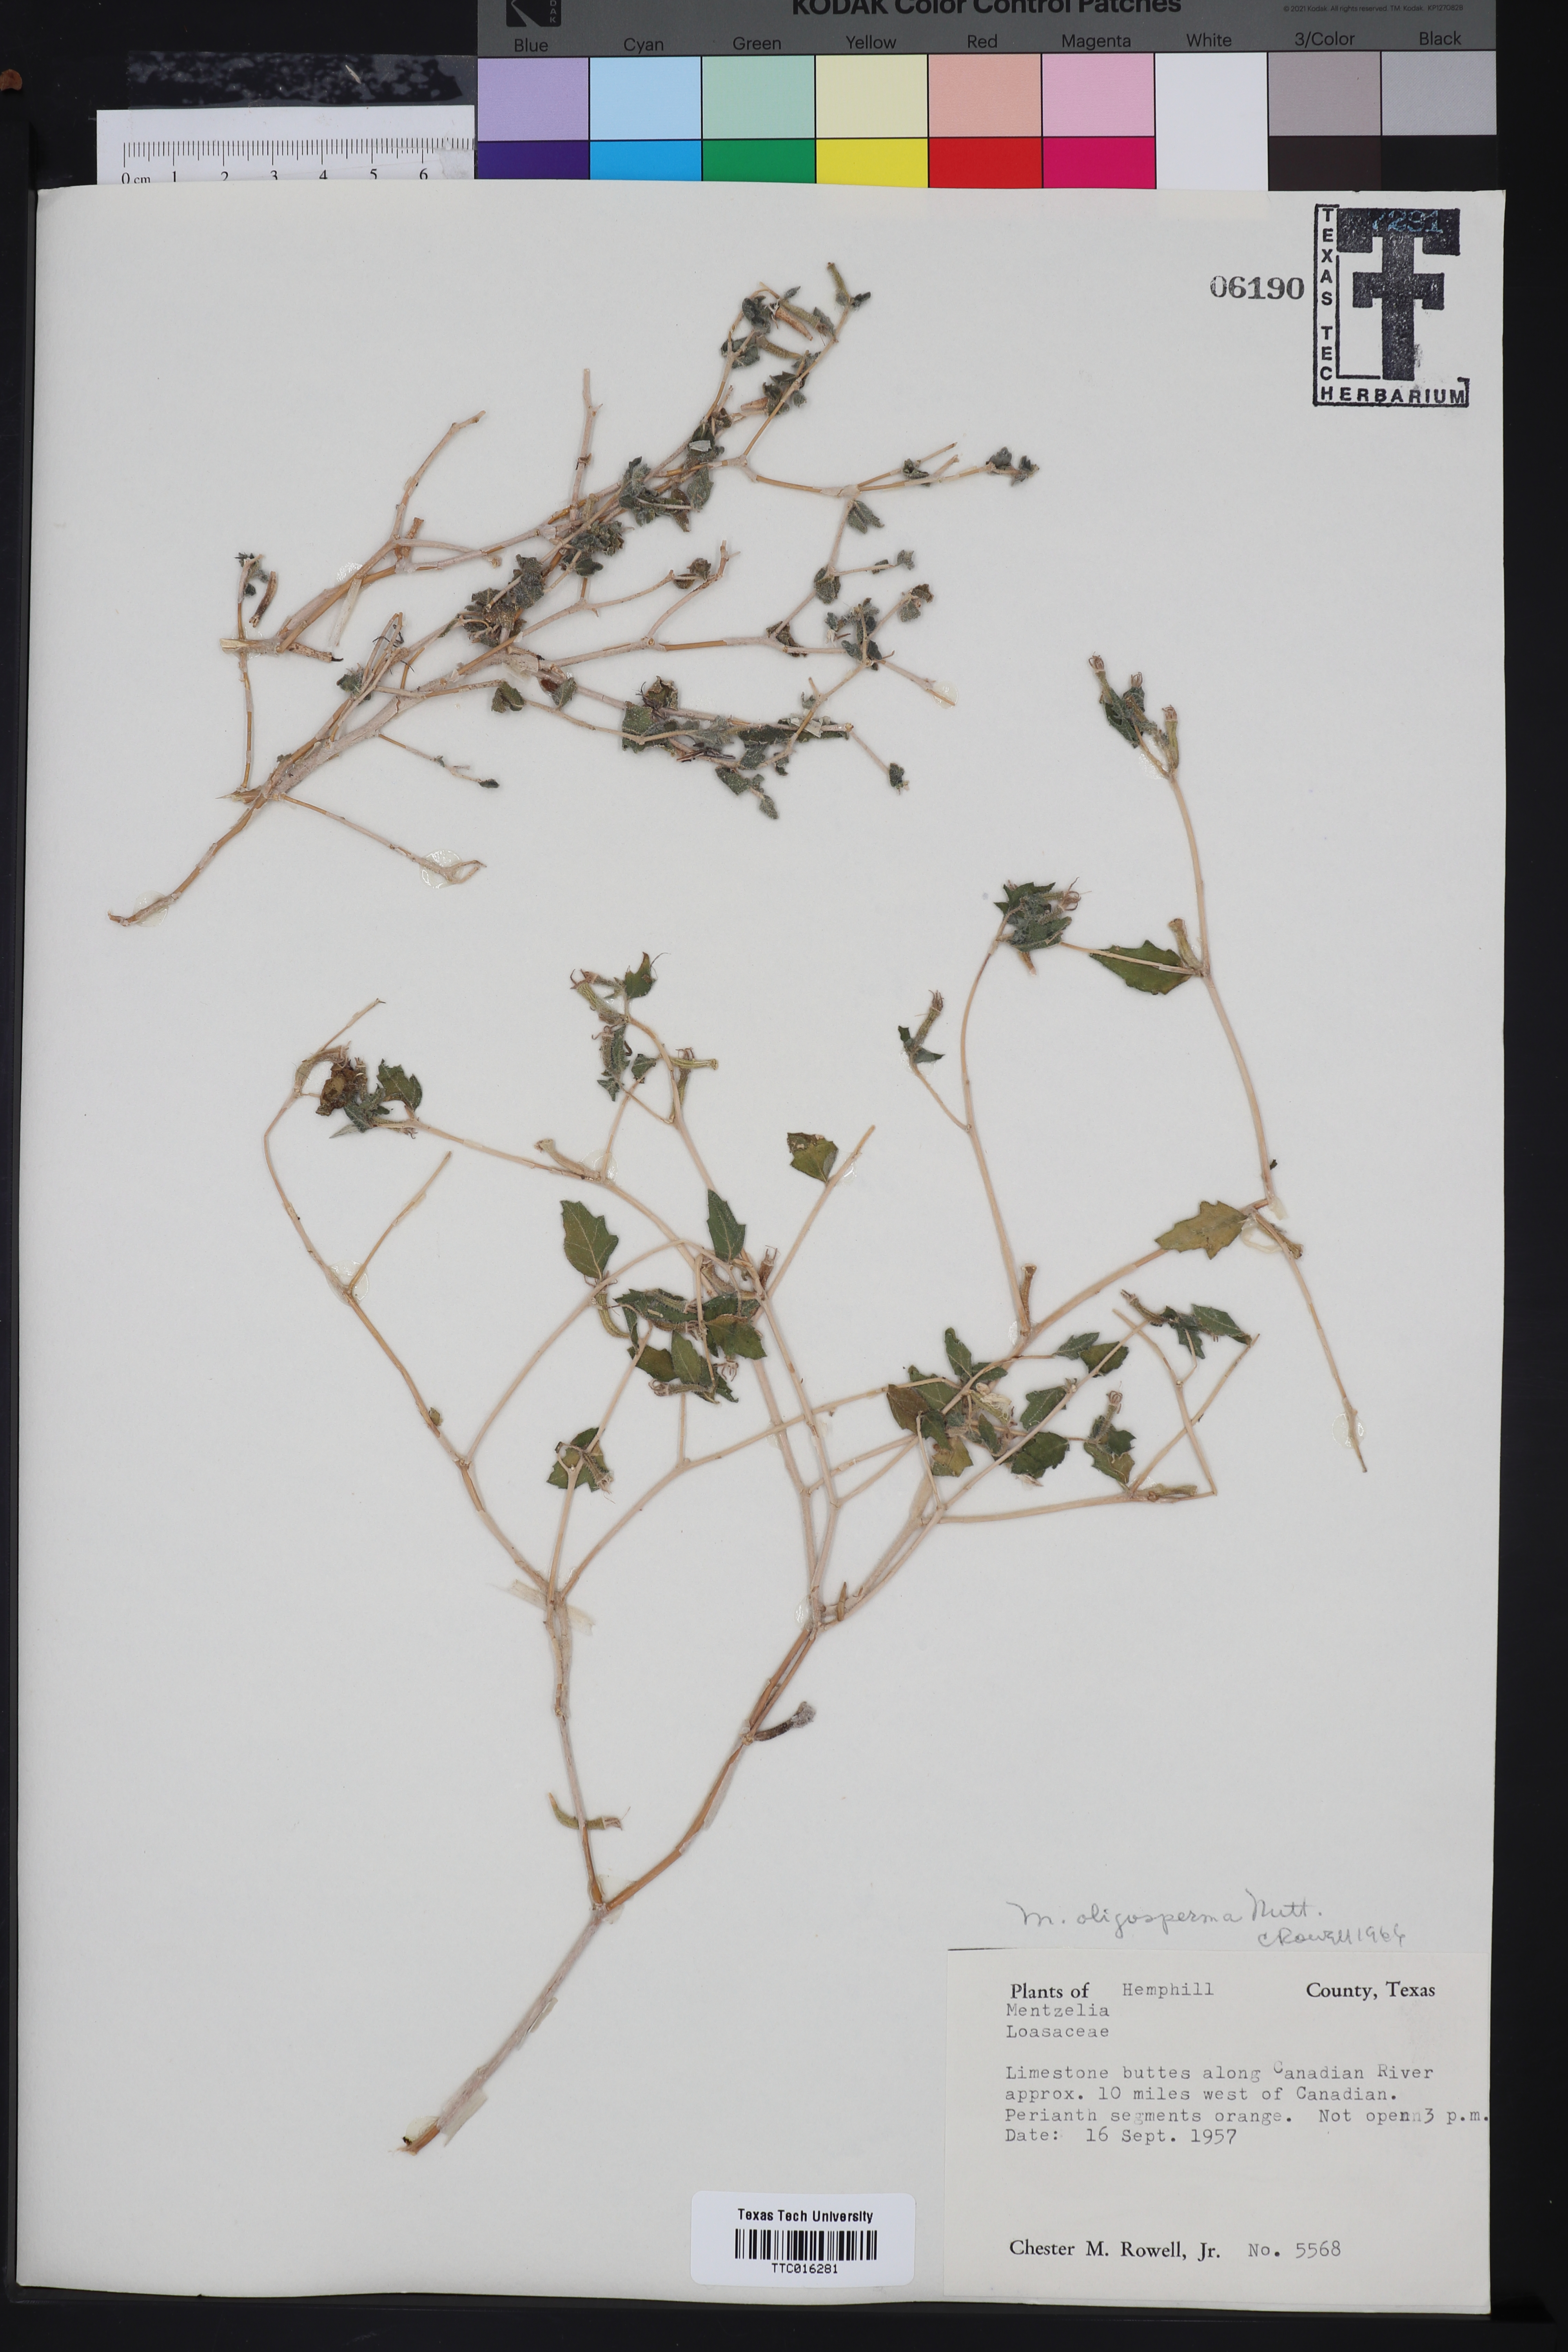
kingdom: Plantae
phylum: Tracheophyta
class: Magnoliopsida
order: Cornales
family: Loasaceae
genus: Mentzelia
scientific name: Mentzelia oligosperma
